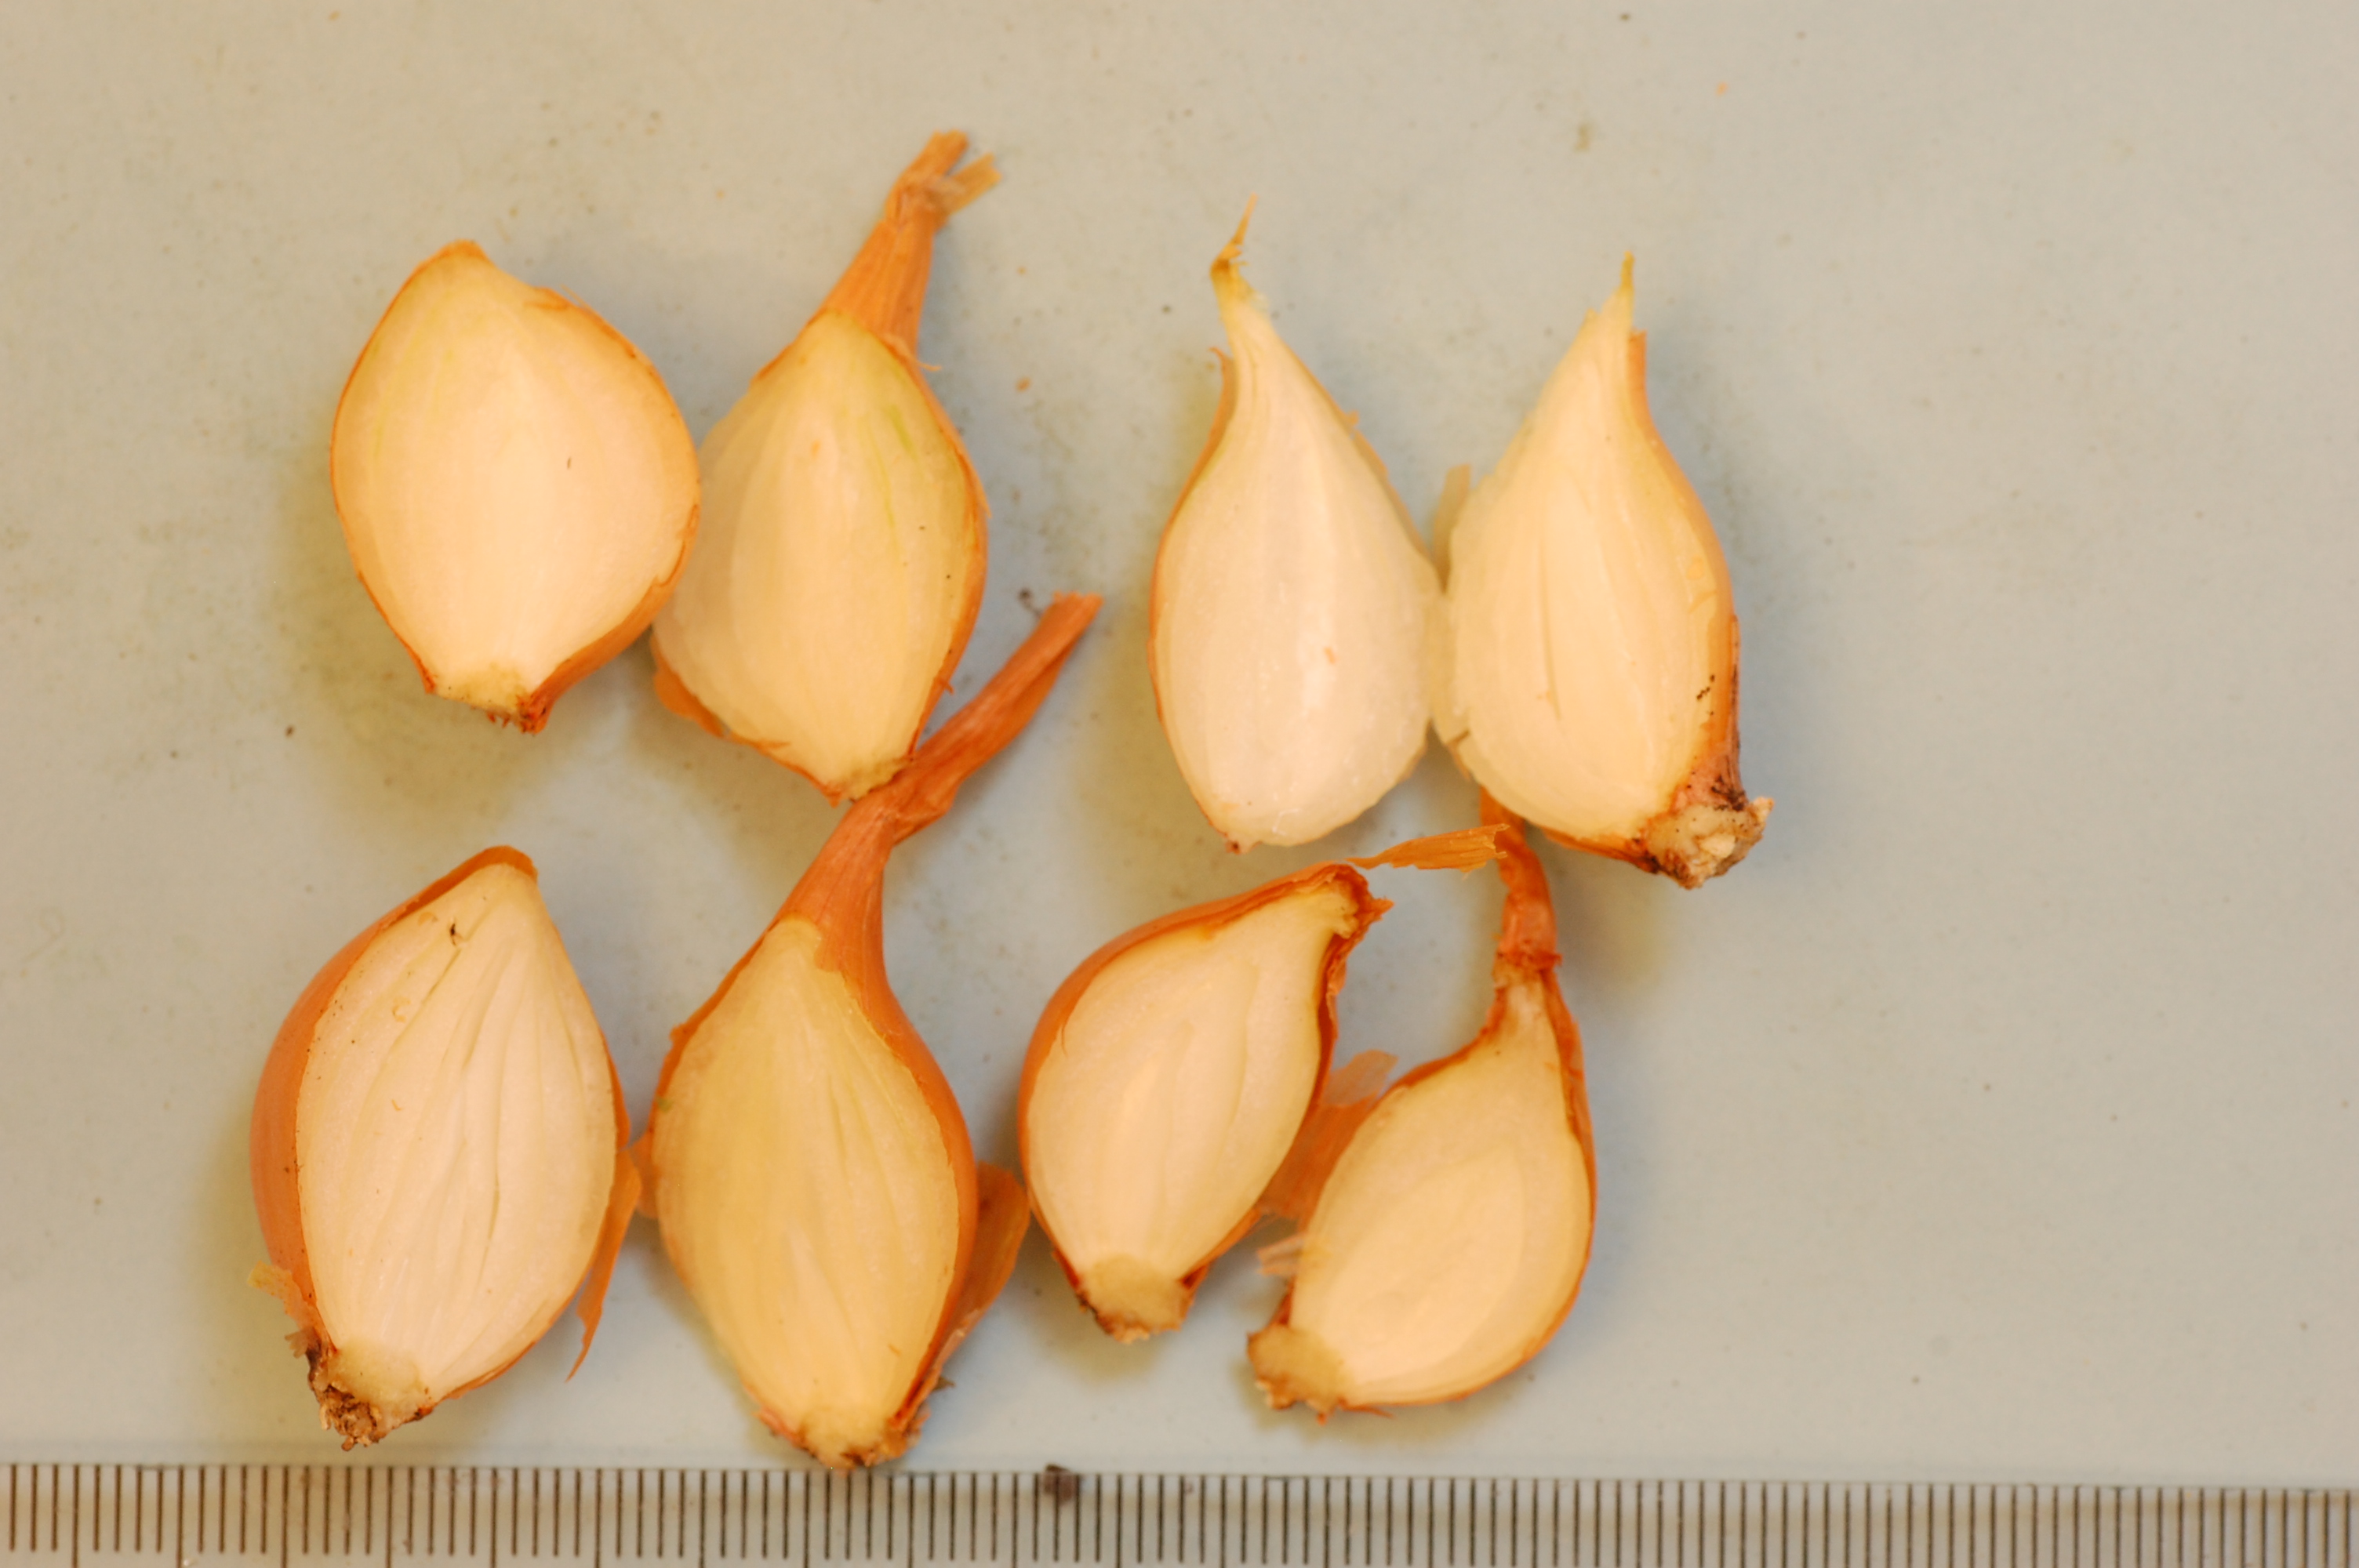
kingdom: Plantae
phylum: Tracheophyta
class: Liliopsida
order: Asparagales
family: Amaryllidaceae
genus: Allium
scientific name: Allium cepa
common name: Onion
